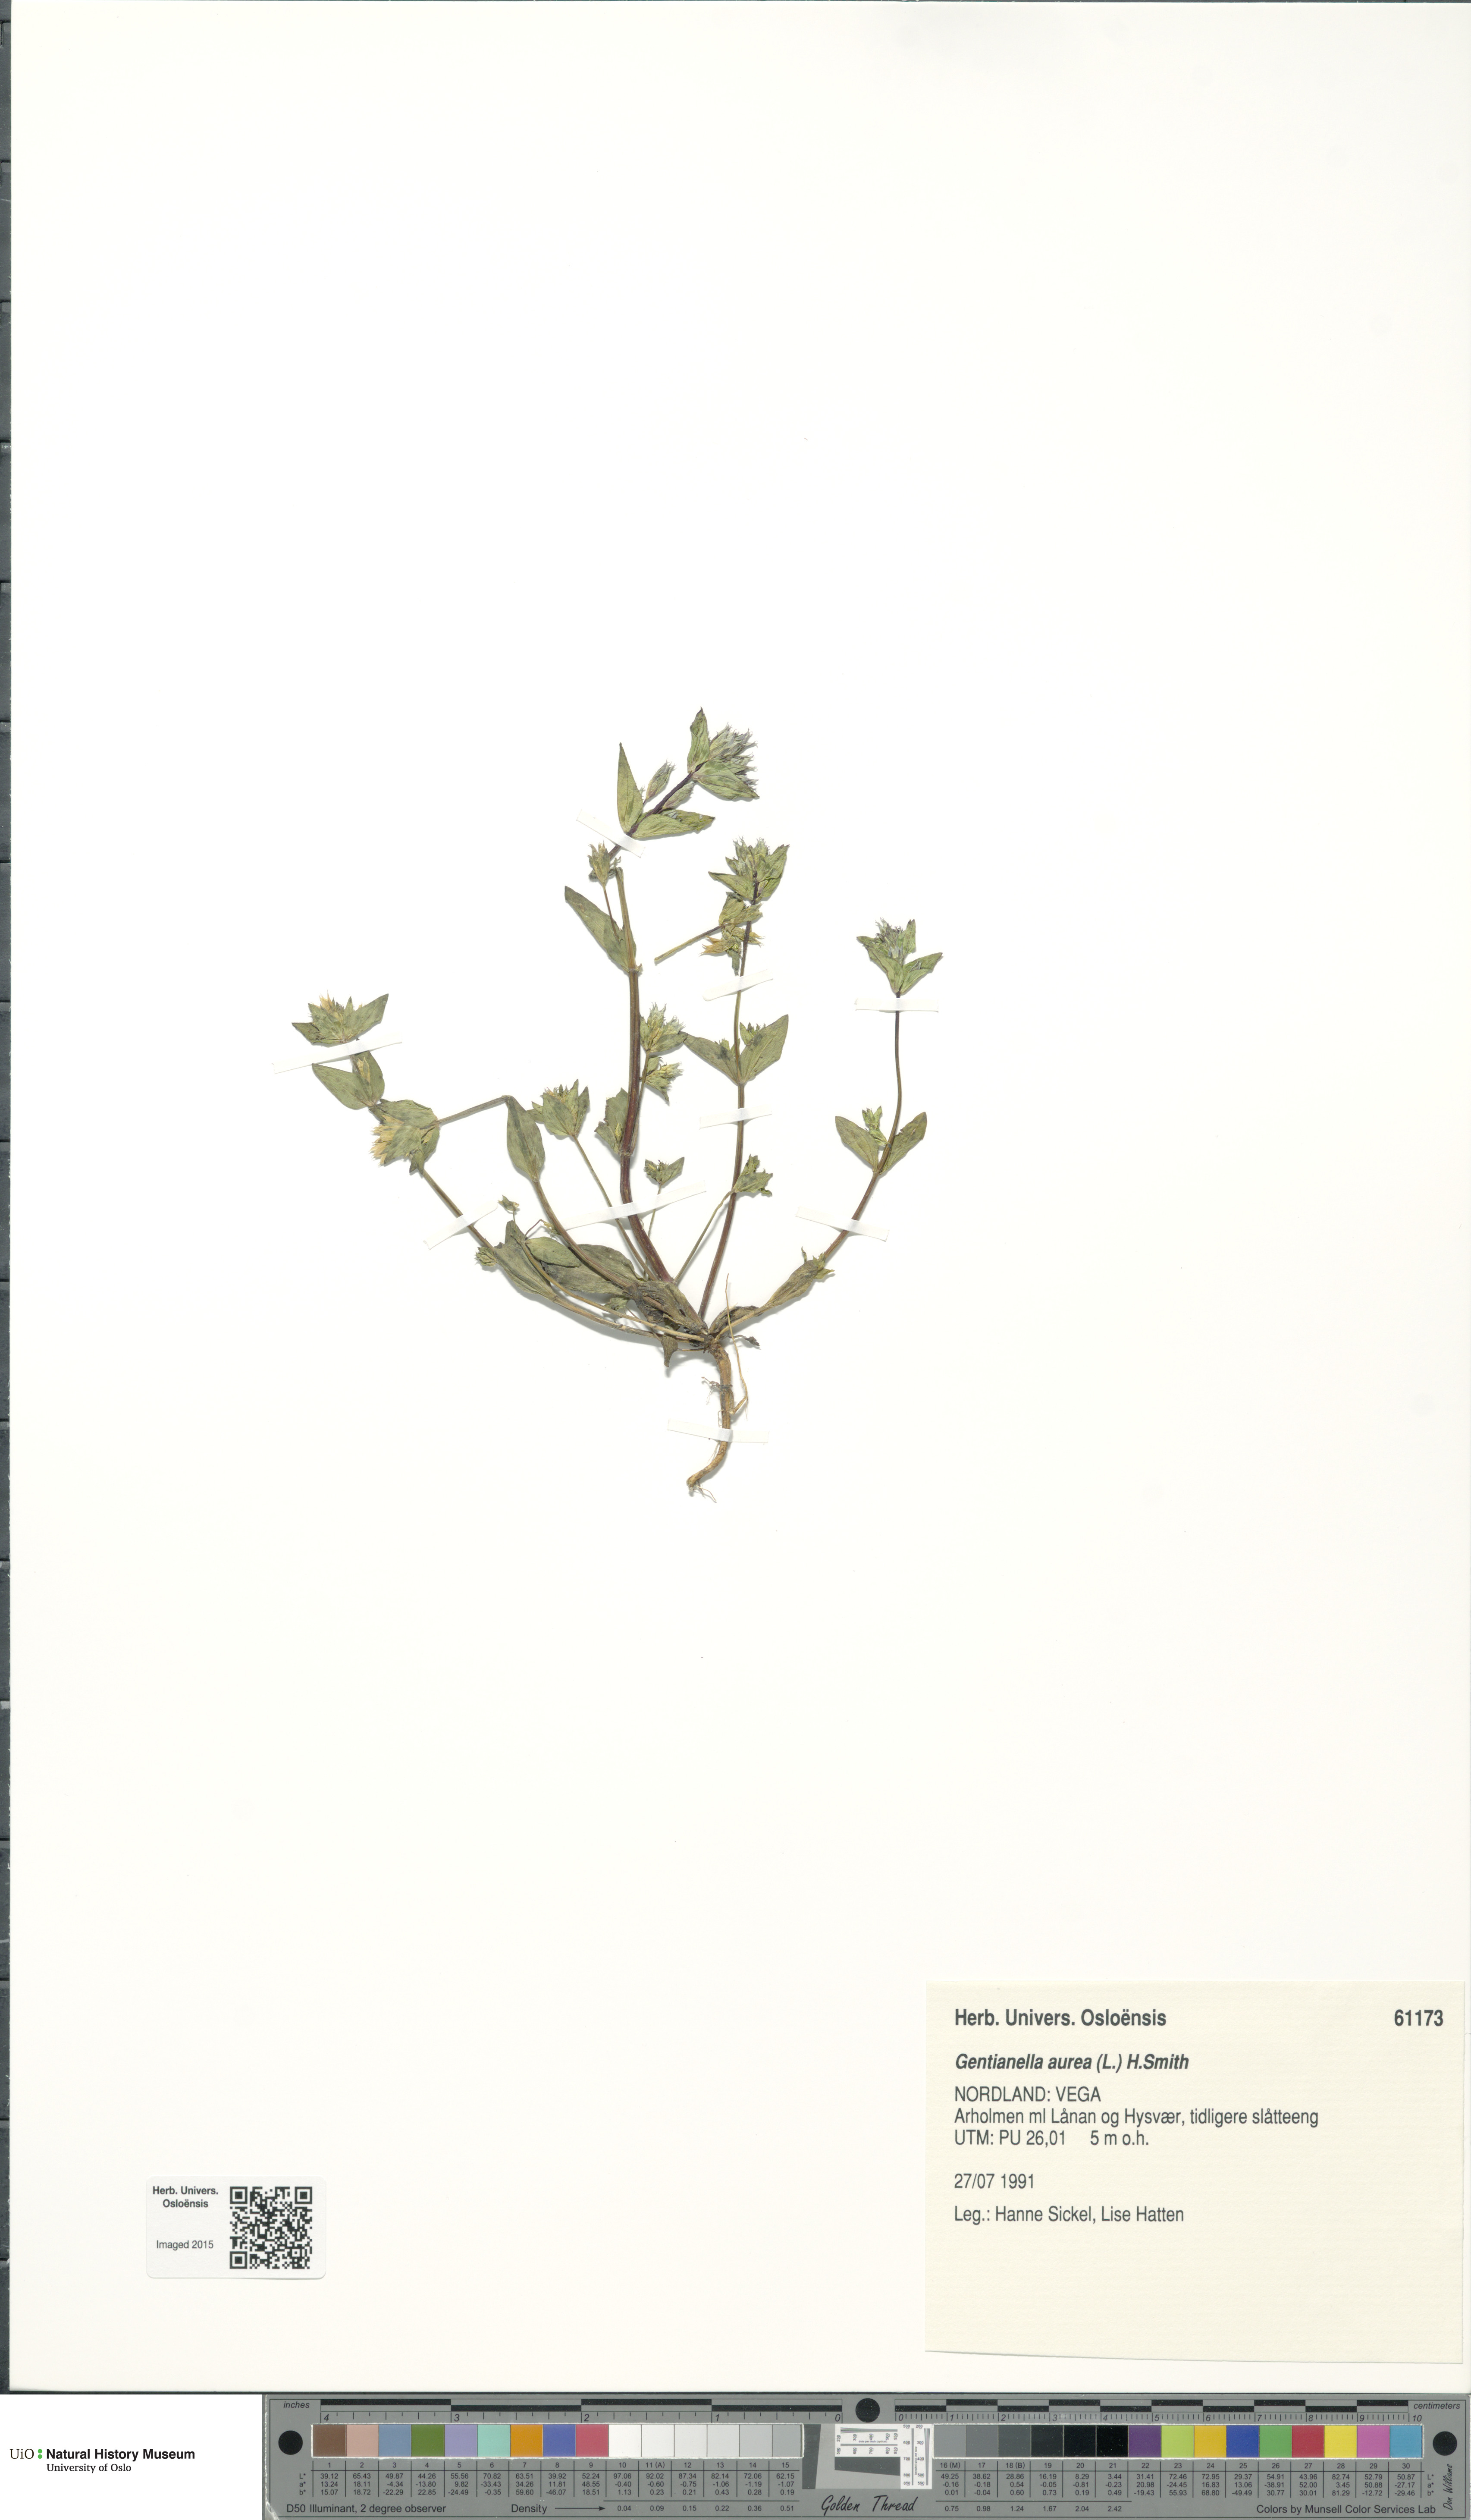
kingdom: Plantae
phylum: Tracheophyta
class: Magnoliopsida
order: Gentianales
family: Gentianaceae
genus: Gentianella
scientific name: Gentianella aurea
